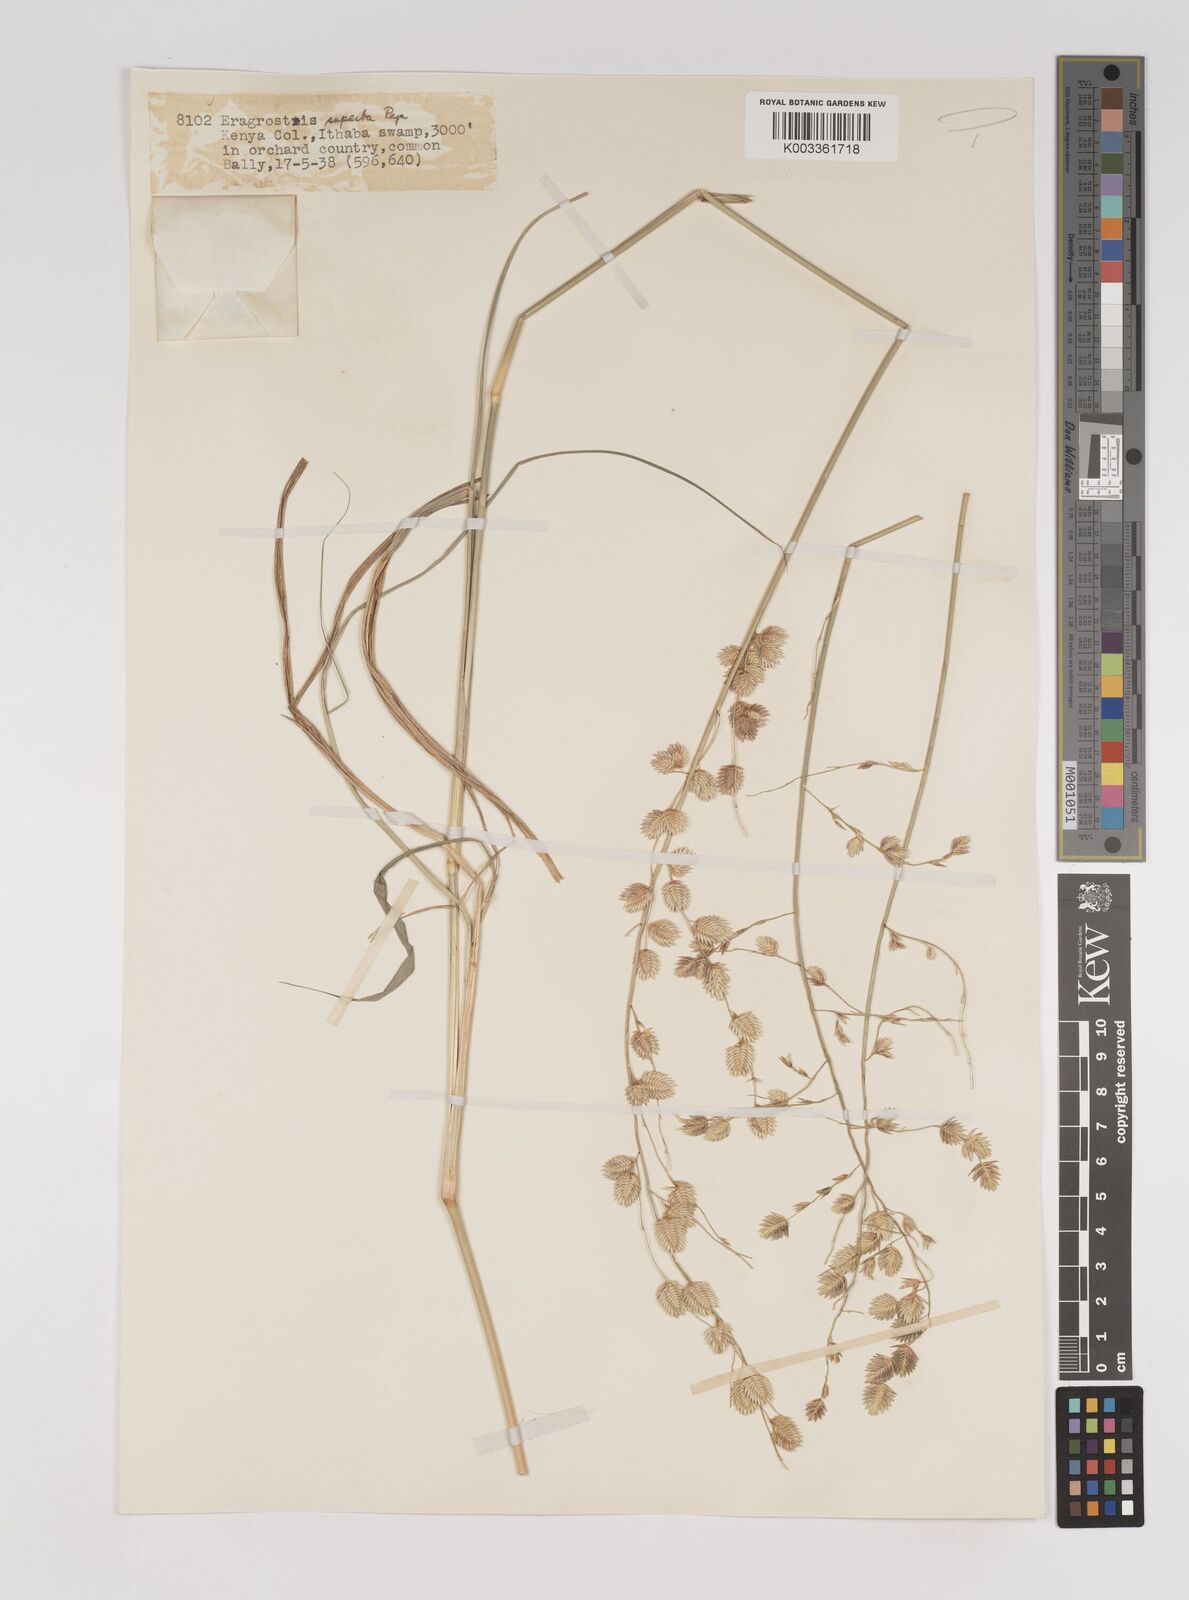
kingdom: Plantae
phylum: Tracheophyta
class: Liliopsida
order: Poales
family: Poaceae
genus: Eragrostis
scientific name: Eragrostis superba
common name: Wilman lovegrass
